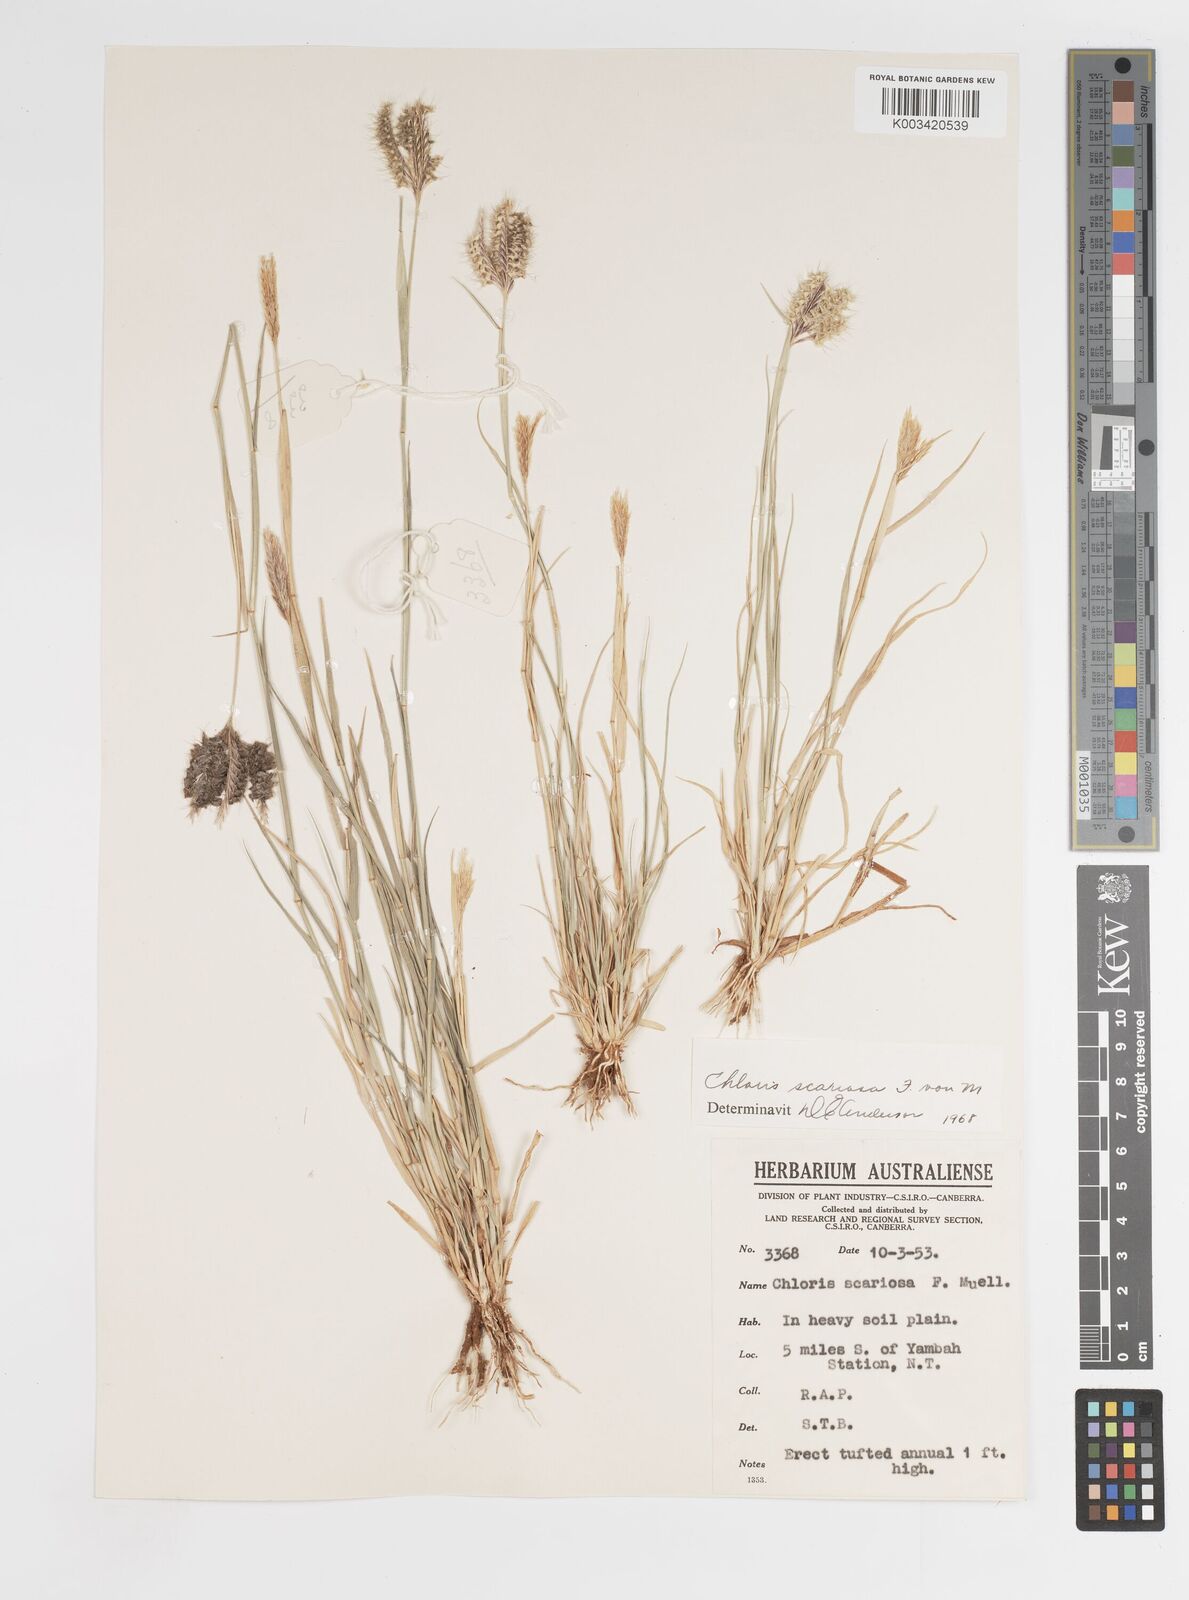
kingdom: Plantae
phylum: Tracheophyta
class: Liliopsida
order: Poales
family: Poaceae
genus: Oxychloris
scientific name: Oxychloris scariosa
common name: Winged windmill grass
